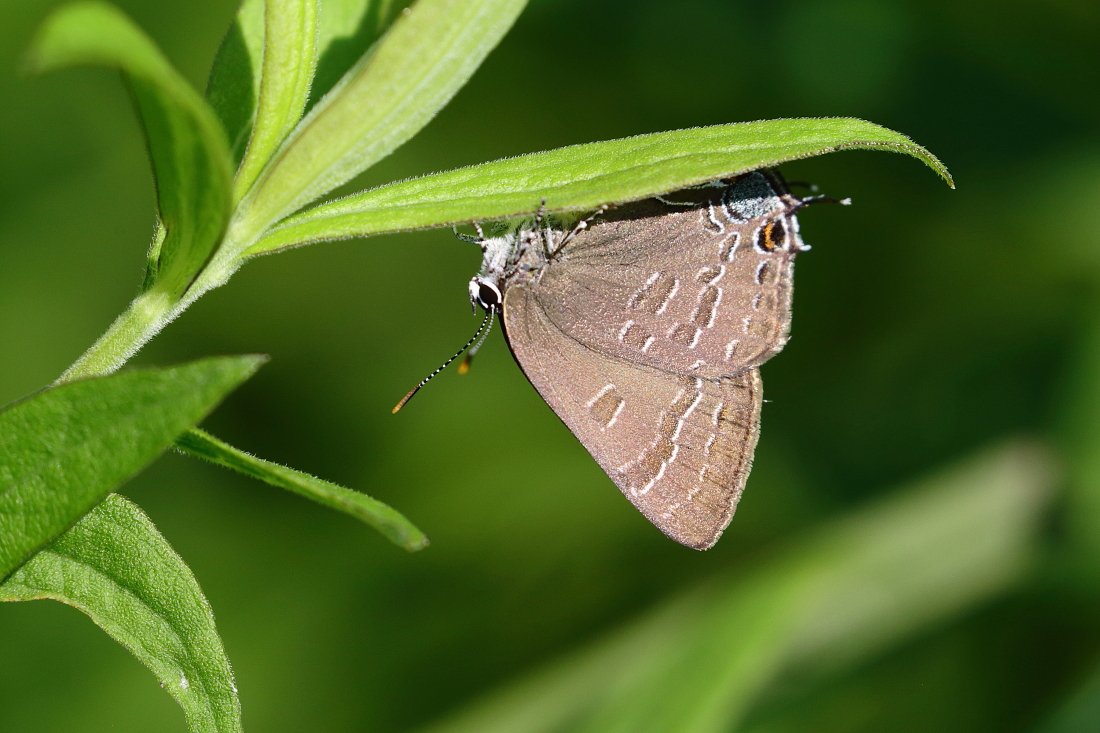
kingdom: Animalia
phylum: Arthropoda
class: Insecta
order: Lepidoptera
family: Lycaenidae
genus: Strymon
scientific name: Strymon caryaevorus
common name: Hickory Hairstreak
